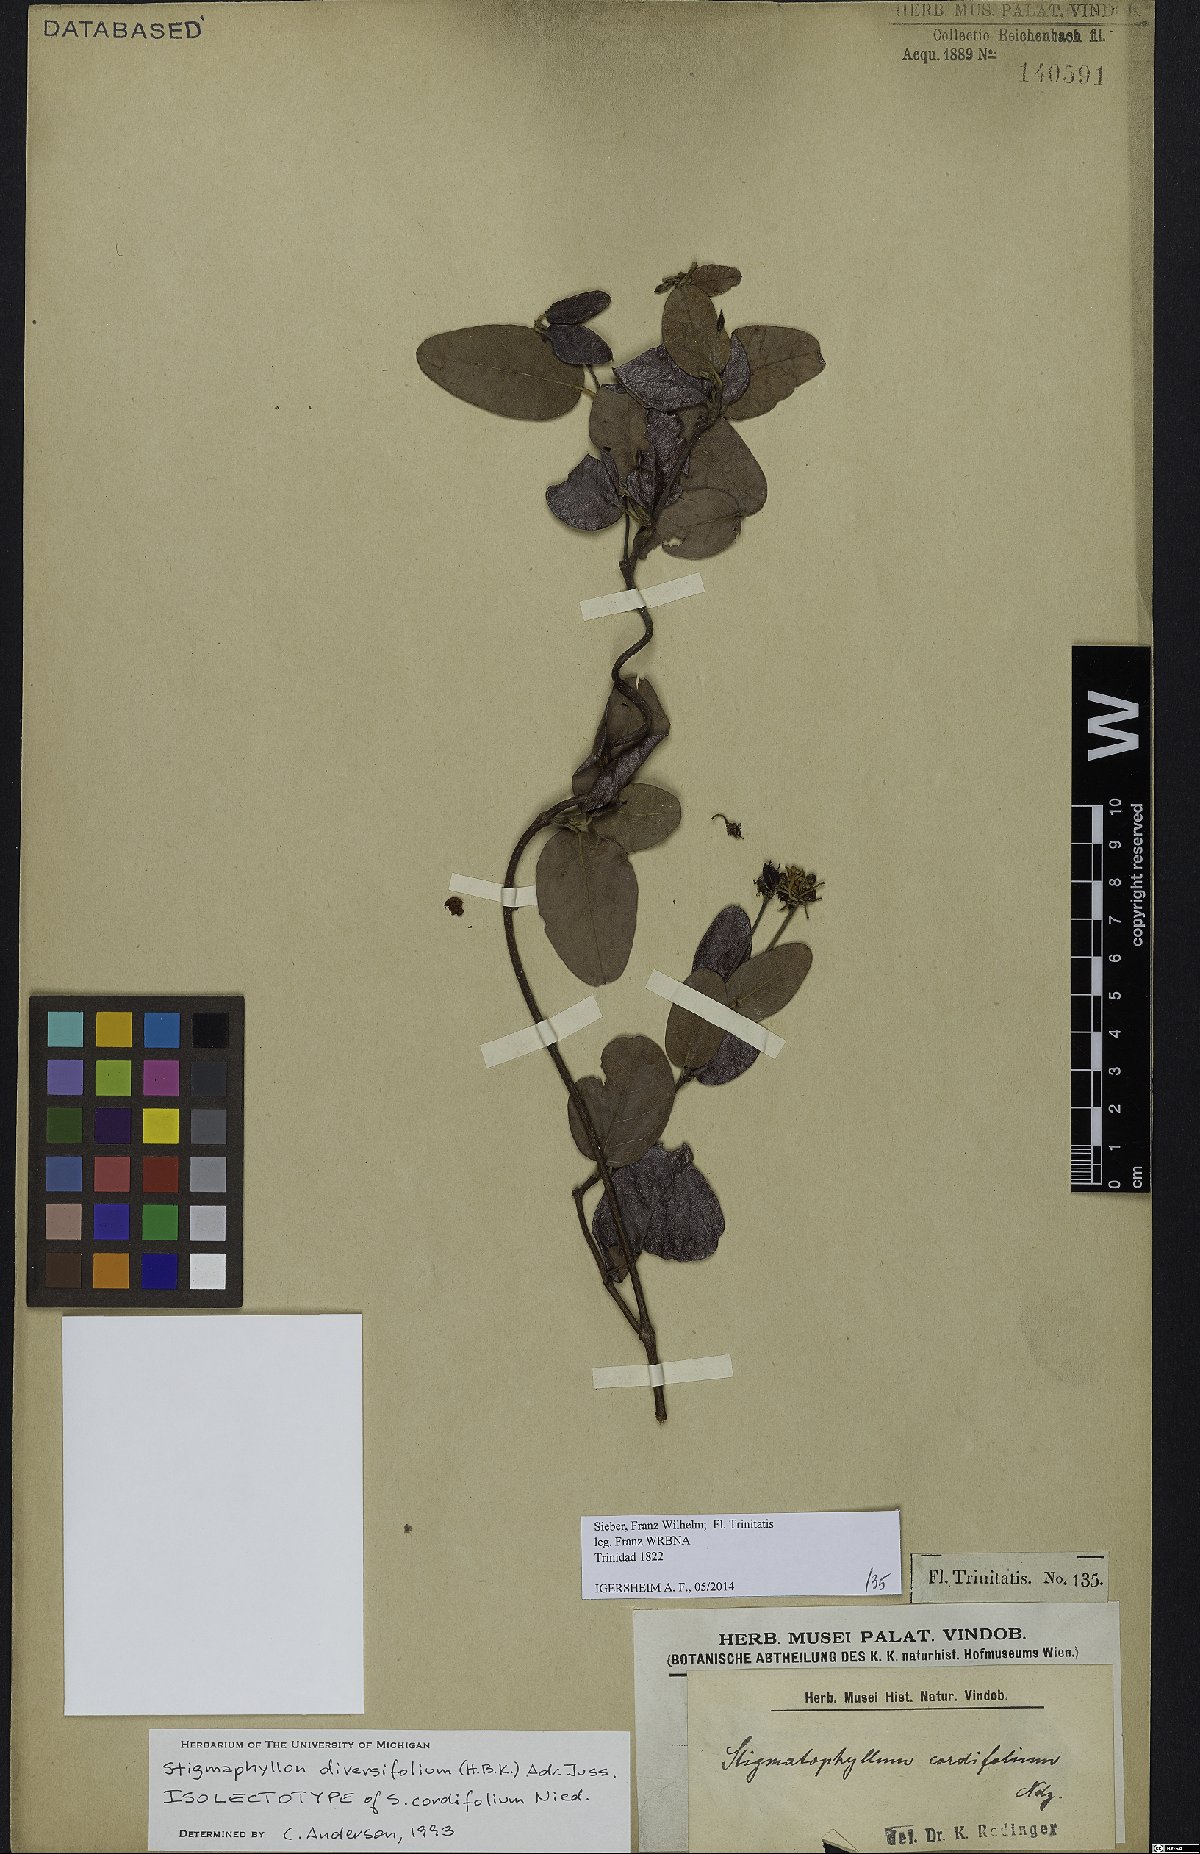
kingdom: Plantae
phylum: Tracheophyta
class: Magnoliopsida
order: Malpighiales
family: Malpighiaceae
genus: Stigmaphyllon
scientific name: Stigmaphyllon diversifolium
